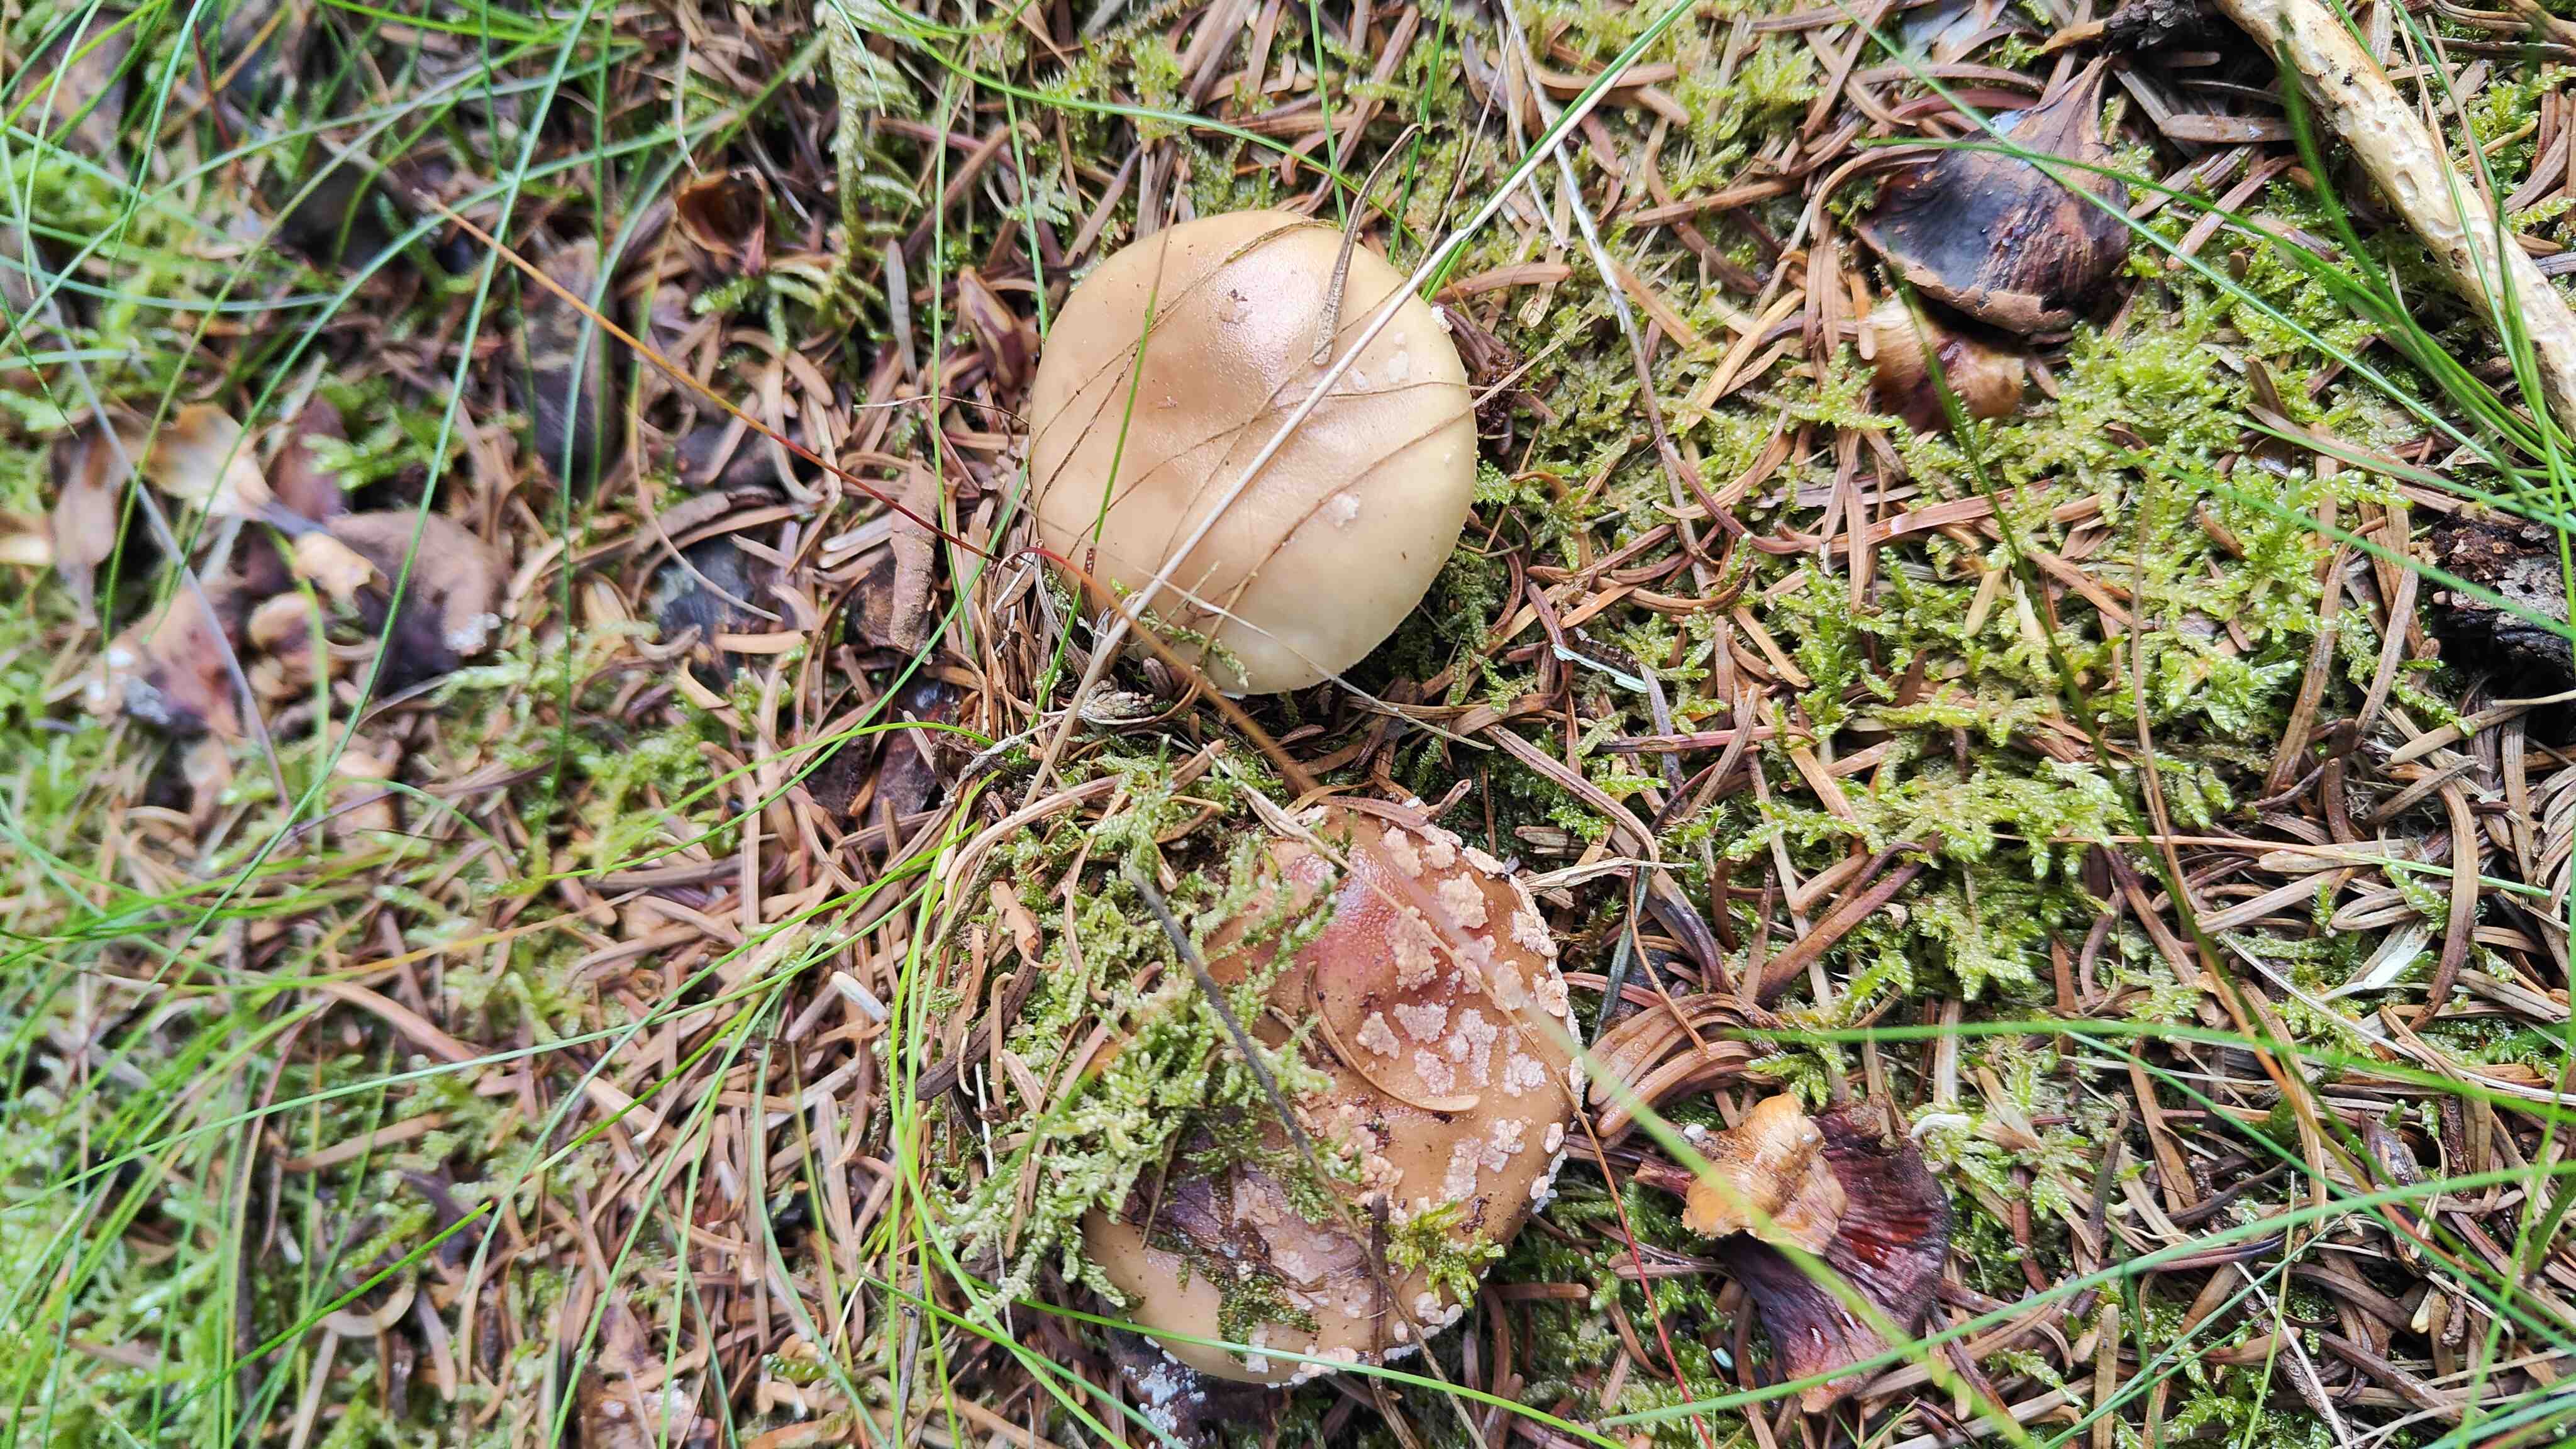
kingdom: Fungi
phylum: Basidiomycota
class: Agaricomycetes
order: Agaricales
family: Amanitaceae
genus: Amanita
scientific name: Amanita rubescens
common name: rødmende fluesvamp
